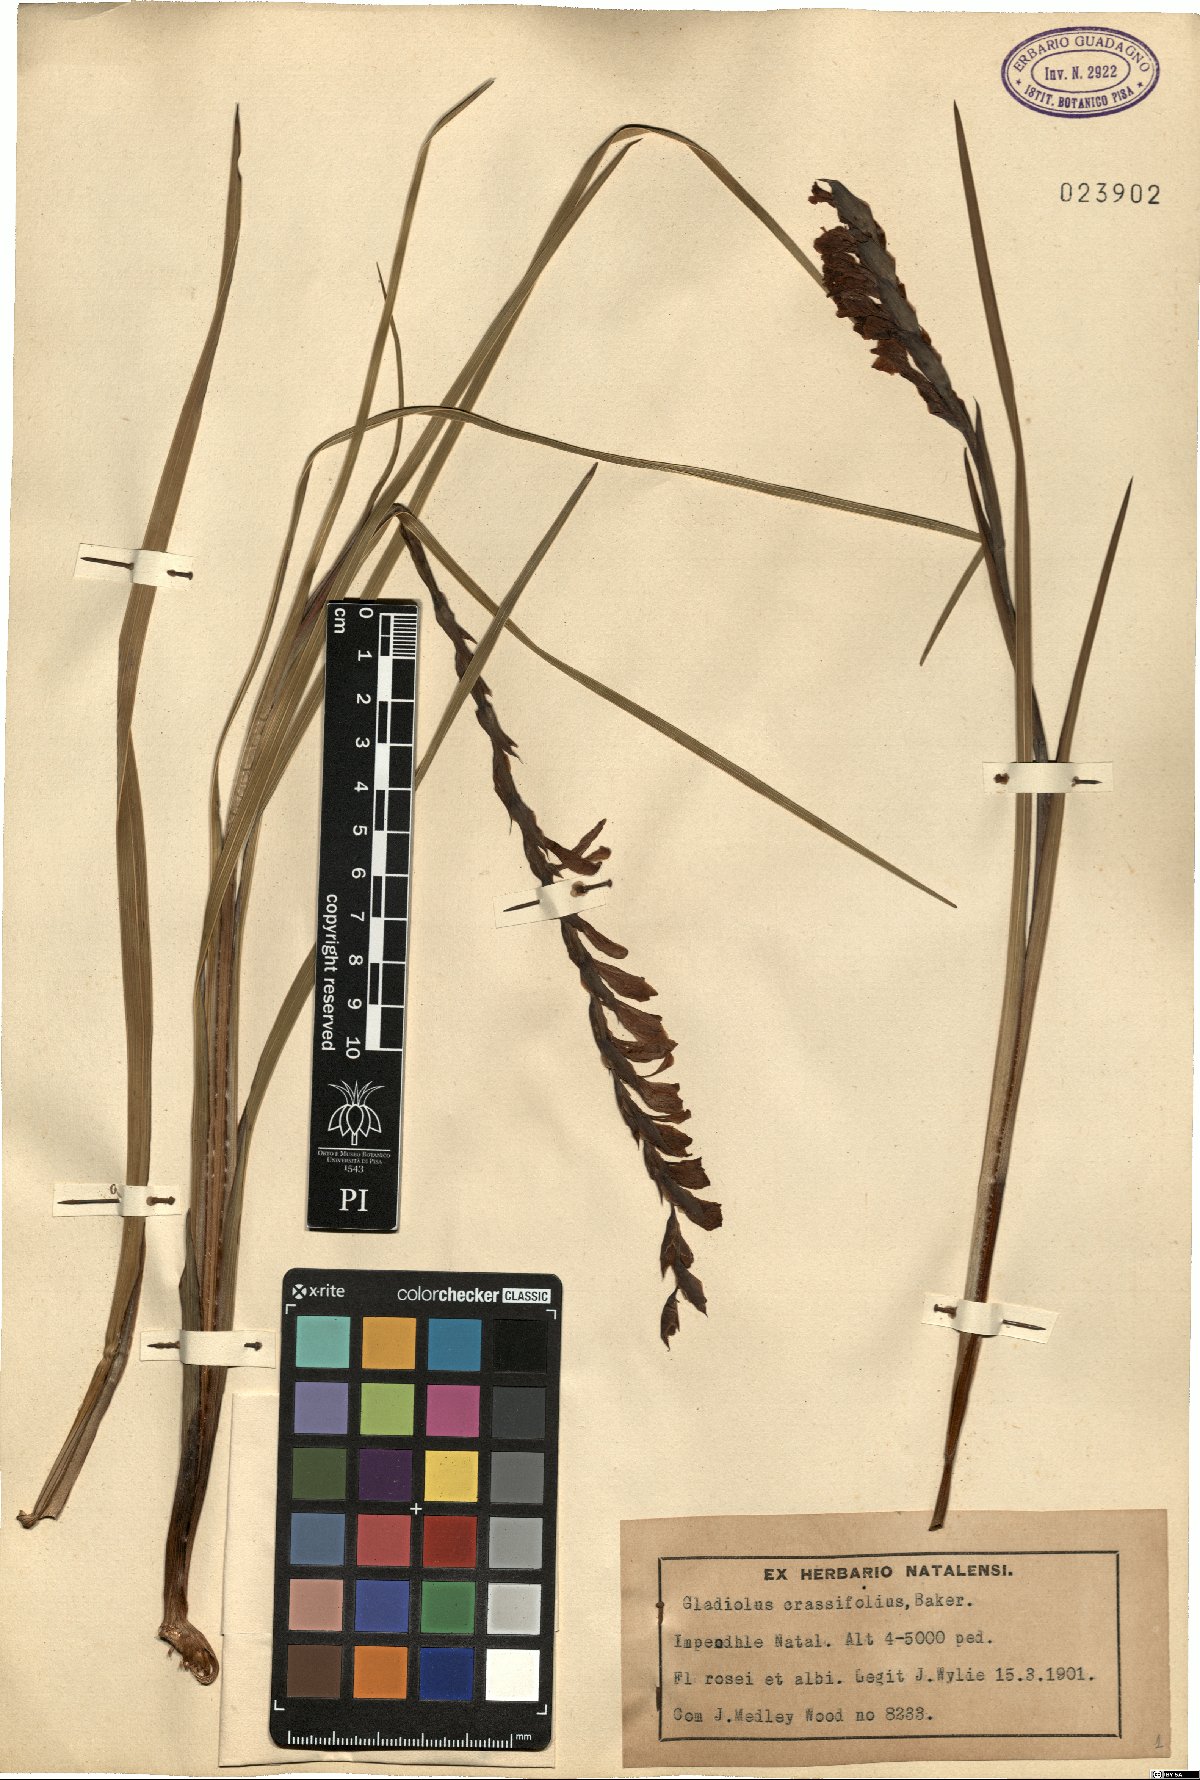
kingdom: Plantae
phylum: Tracheophyta
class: Liliopsida
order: Asparagales
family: Iridaceae
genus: Gladiolus
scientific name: Gladiolus crassifolius
